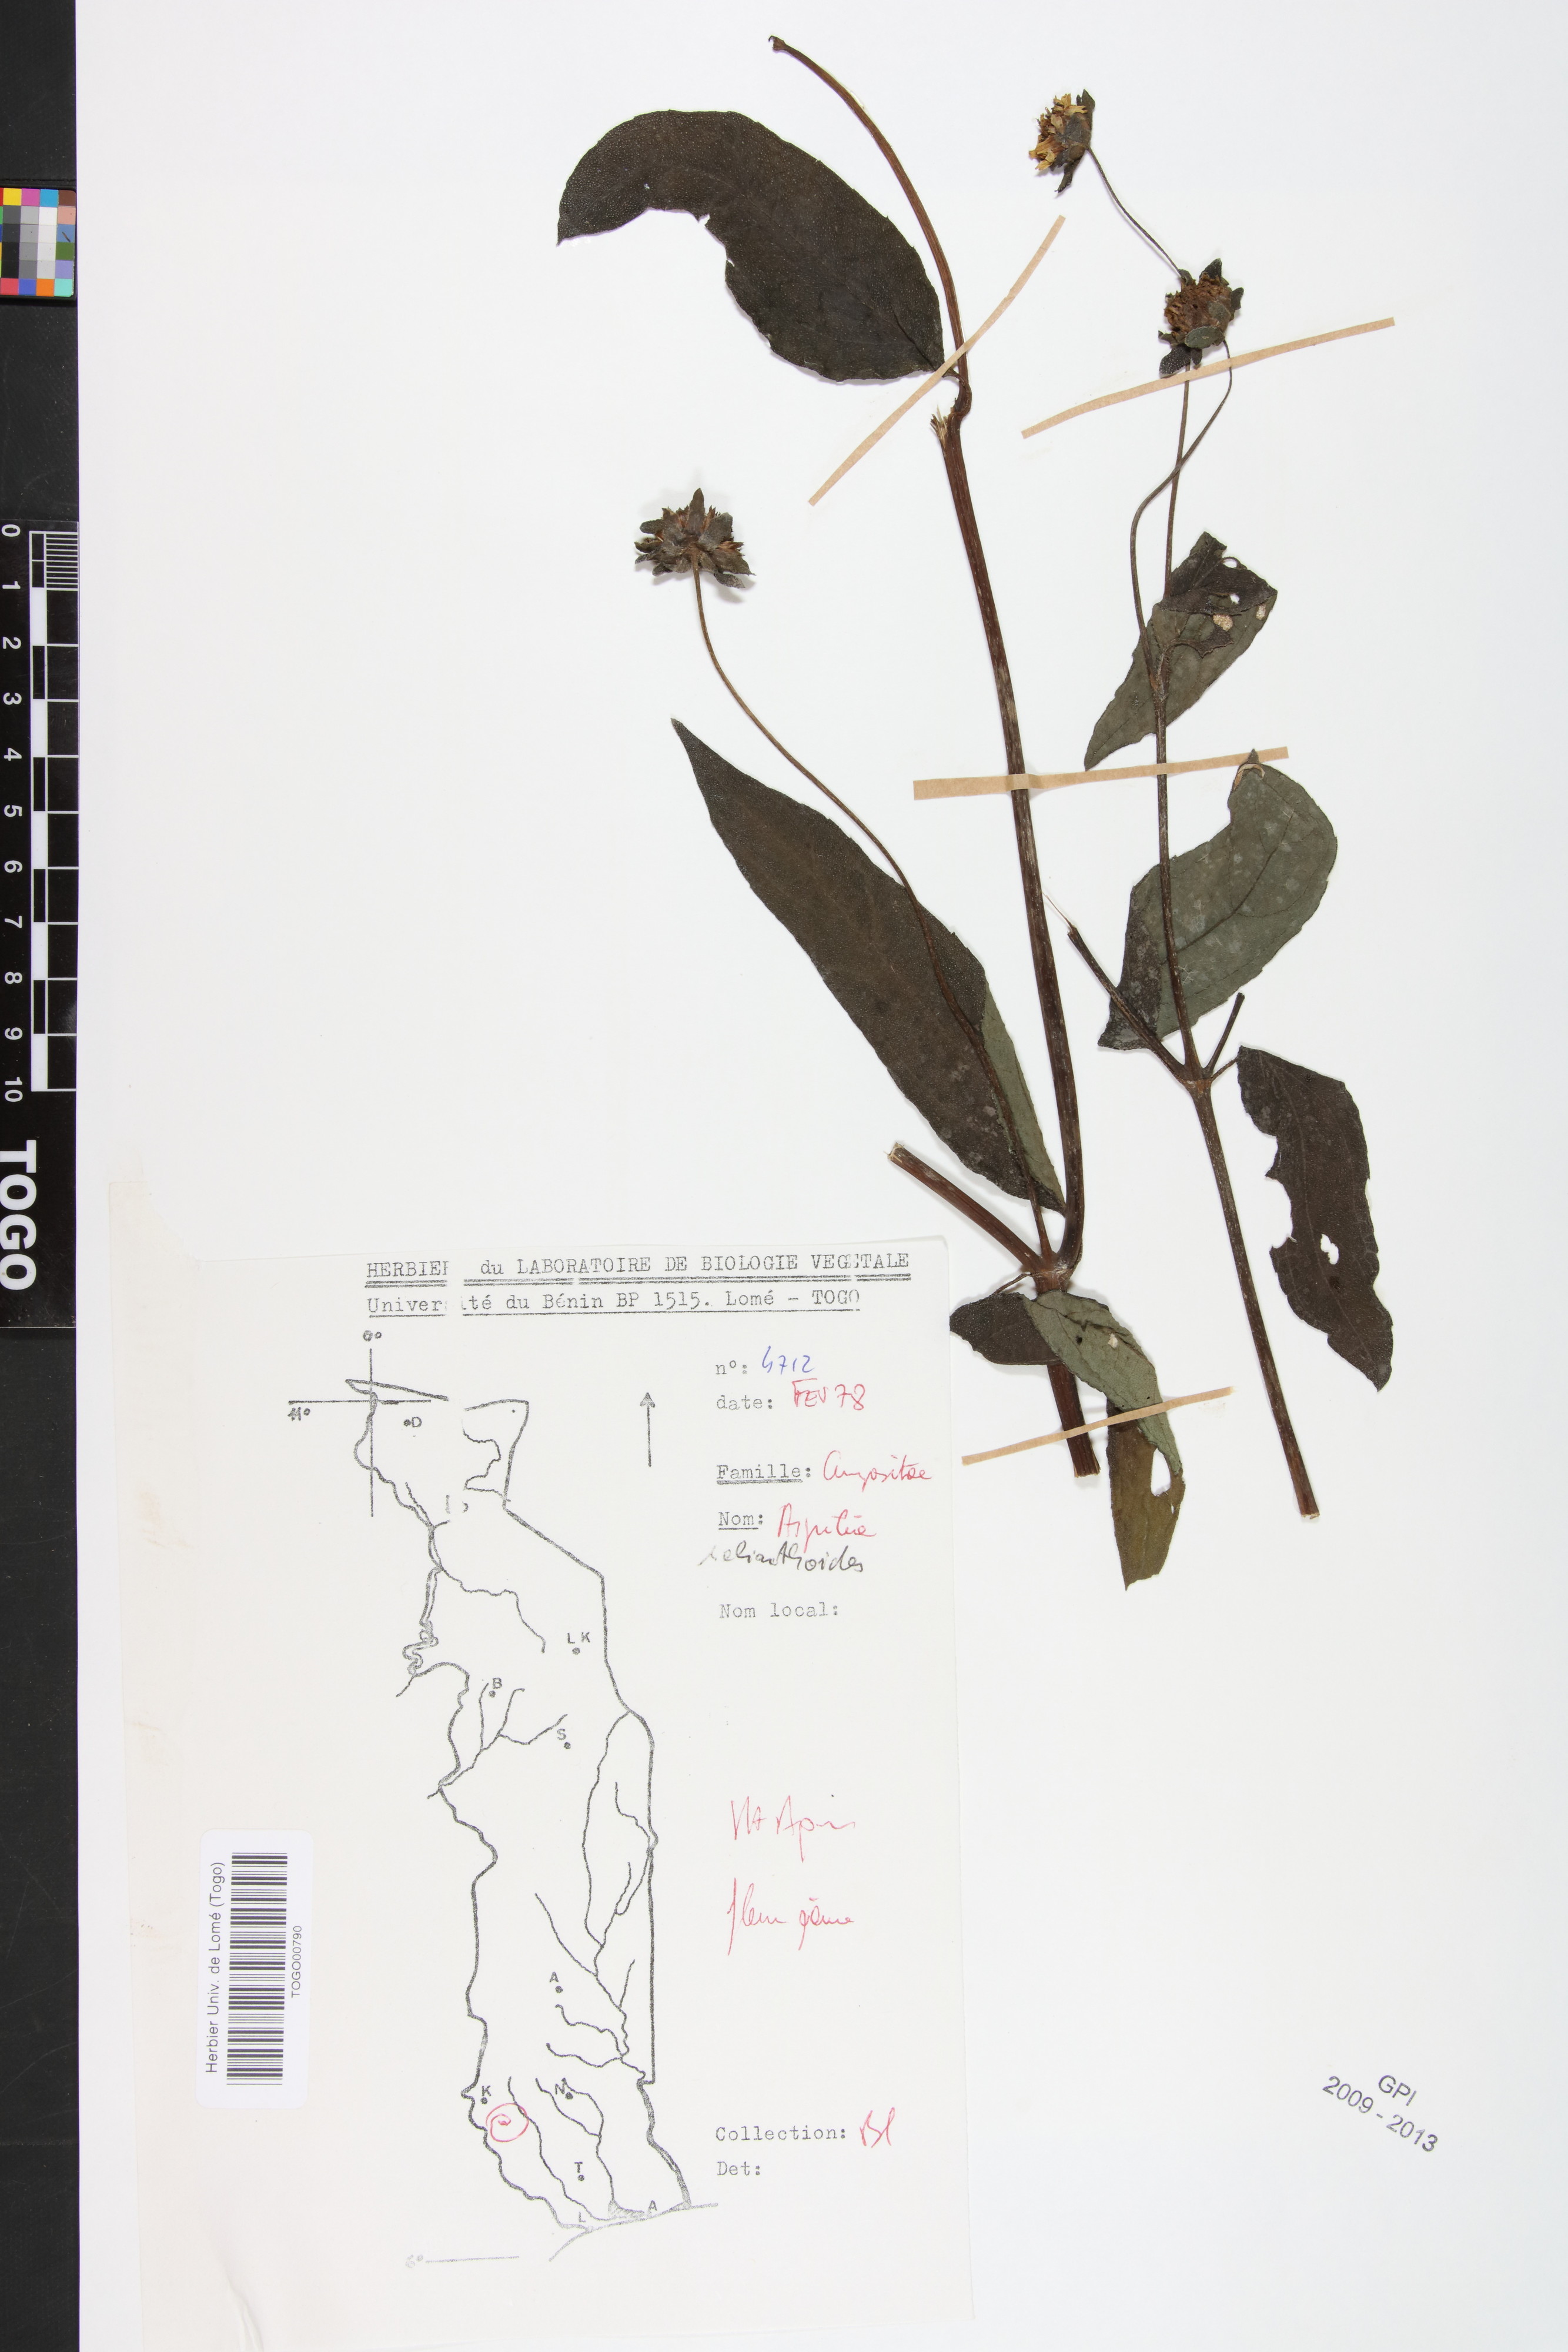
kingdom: Plantae
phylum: Tracheophyta
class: Magnoliopsida
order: Asterales
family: Asteraceae
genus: Aspilia
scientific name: Aspilia helianthoides
